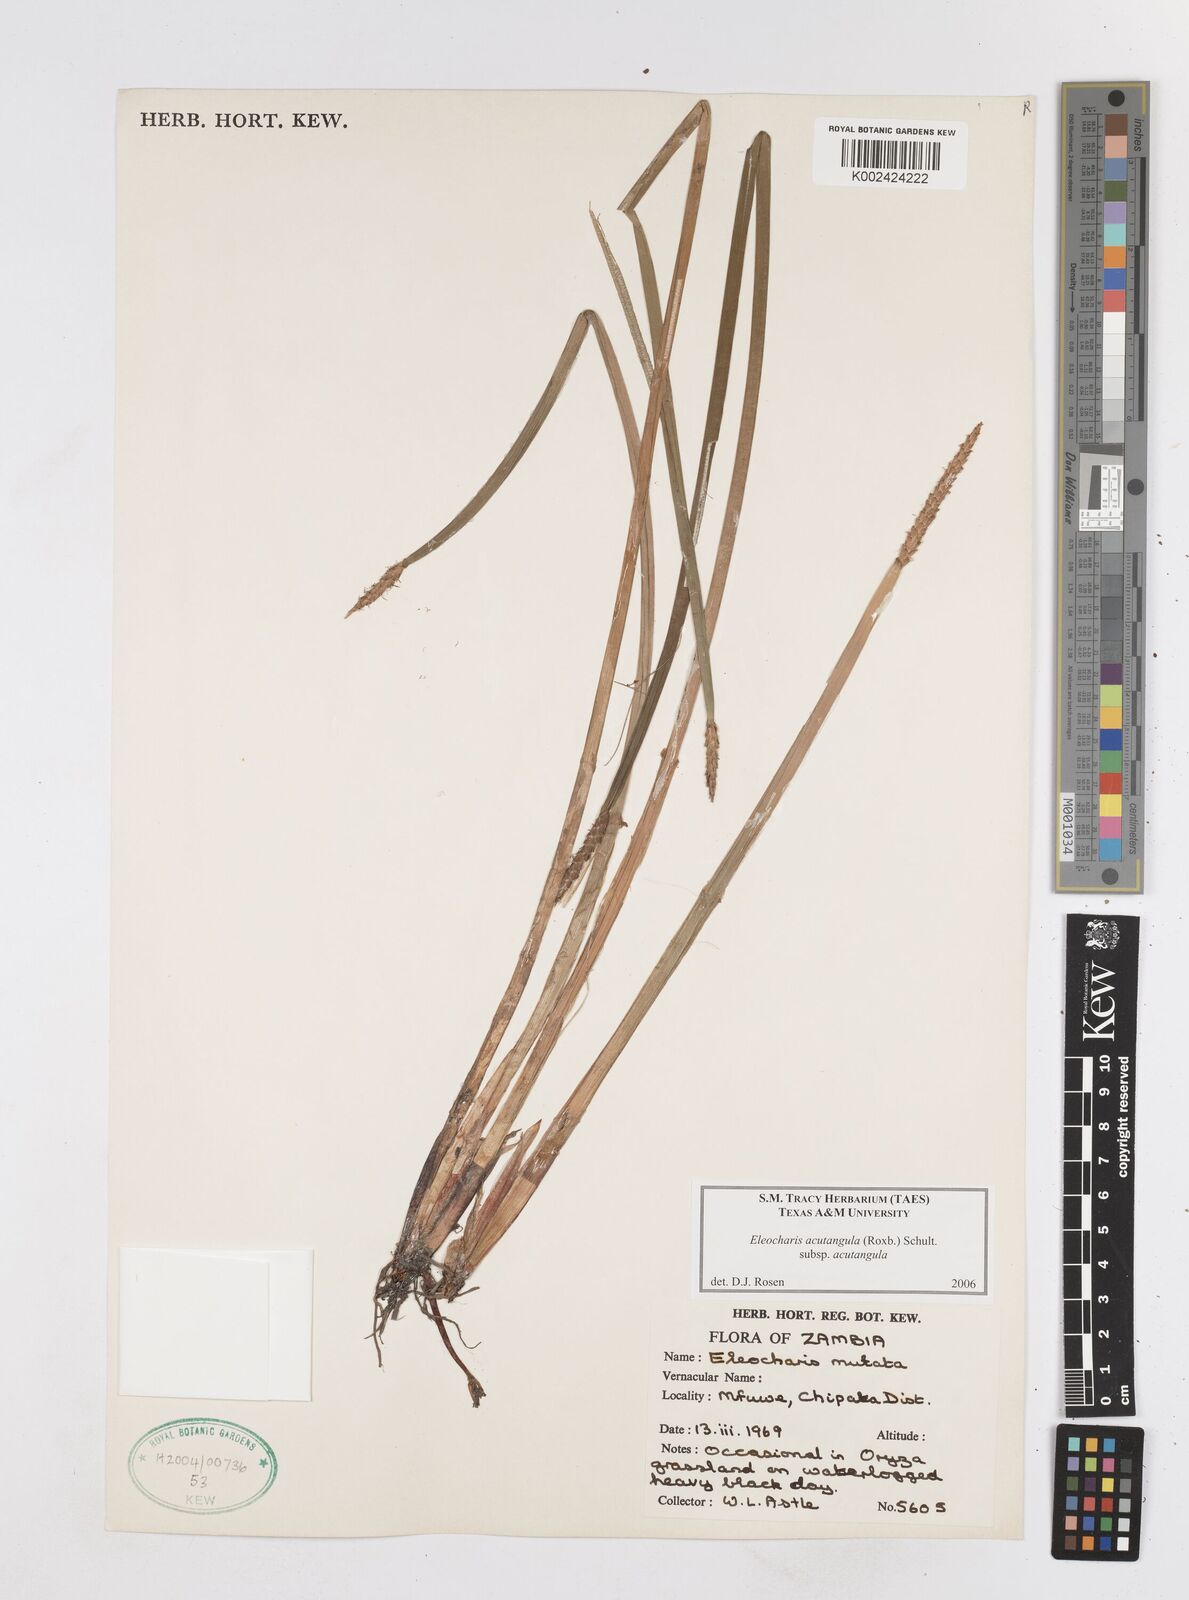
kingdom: Plantae
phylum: Tracheophyta
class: Liliopsida
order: Poales
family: Cyperaceae
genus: Eleocharis
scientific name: Eleocharis acutangula
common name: Acute spikerush
